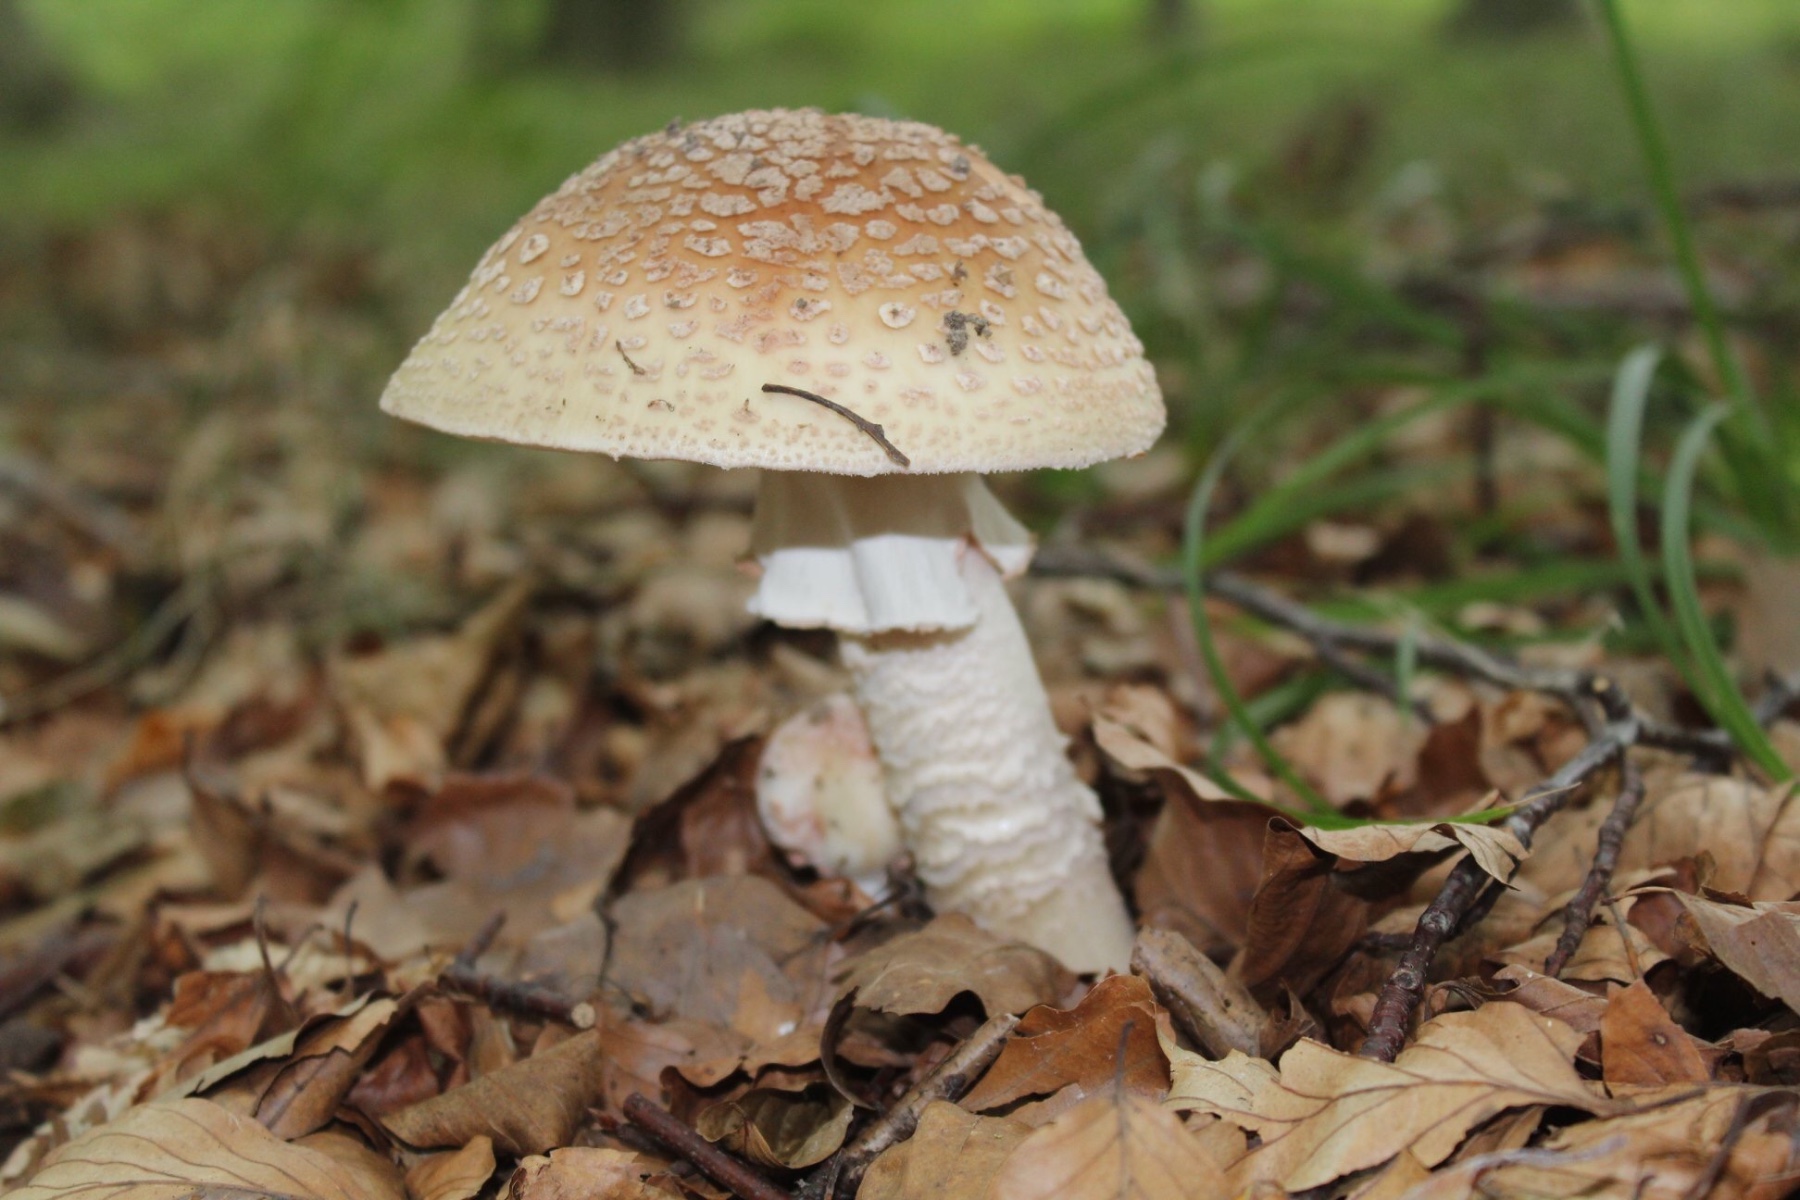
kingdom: Fungi
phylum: Basidiomycota
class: Agaricomycetes
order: Agaricales
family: Amanitaceae
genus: Amanita
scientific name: Amanita rubescens
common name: rødmende fluesvamp
